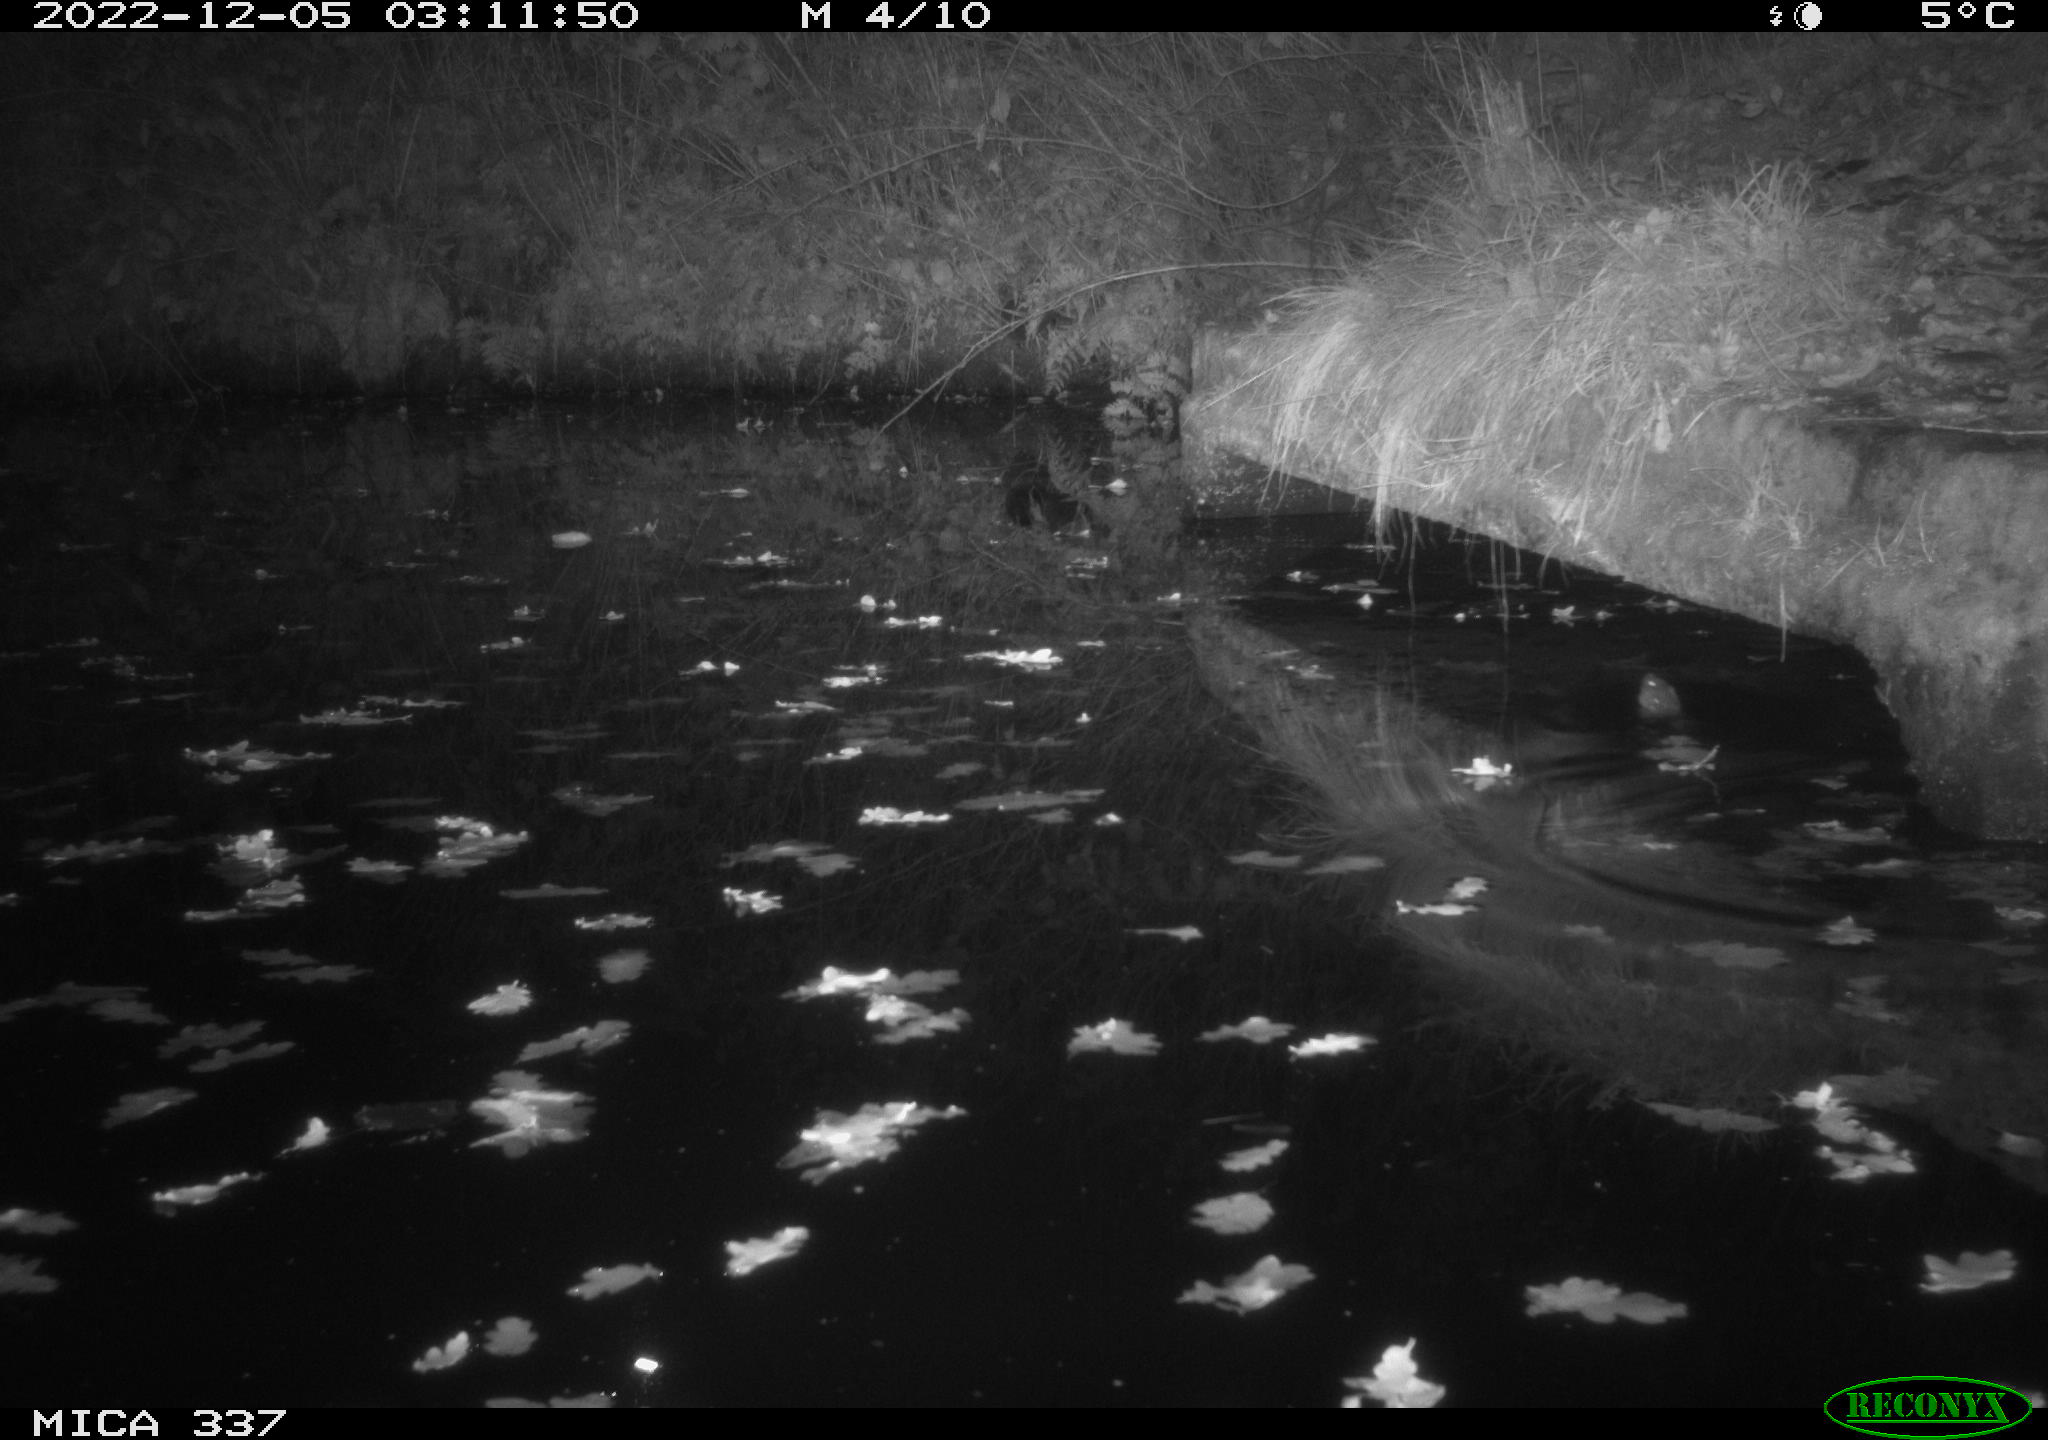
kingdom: Animalia
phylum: Chordata
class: Mammalia
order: Rodentia
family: Muridae
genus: Rattus
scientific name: Rattus norvegicus
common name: Brown rat
